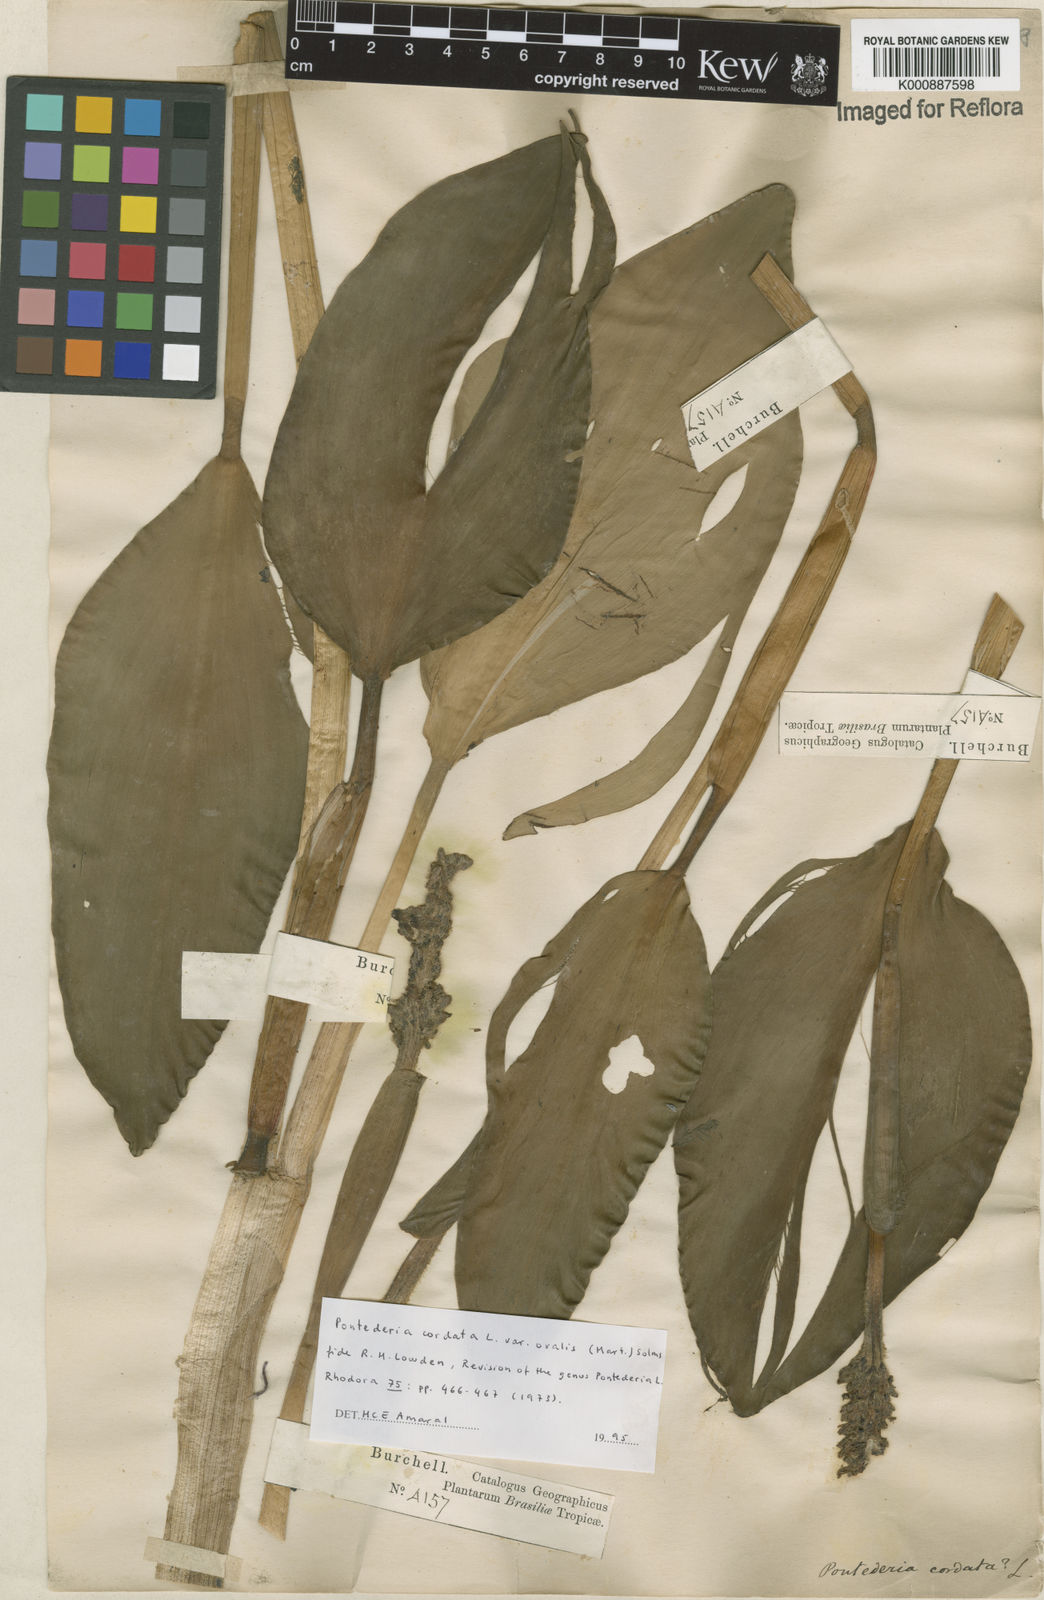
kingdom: Plantae
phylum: Tracheophyta
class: Liliopsida
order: Commelinales
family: Pontederiaceae
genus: Pontederia
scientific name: Pontederia cordata
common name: Pickerelweed
